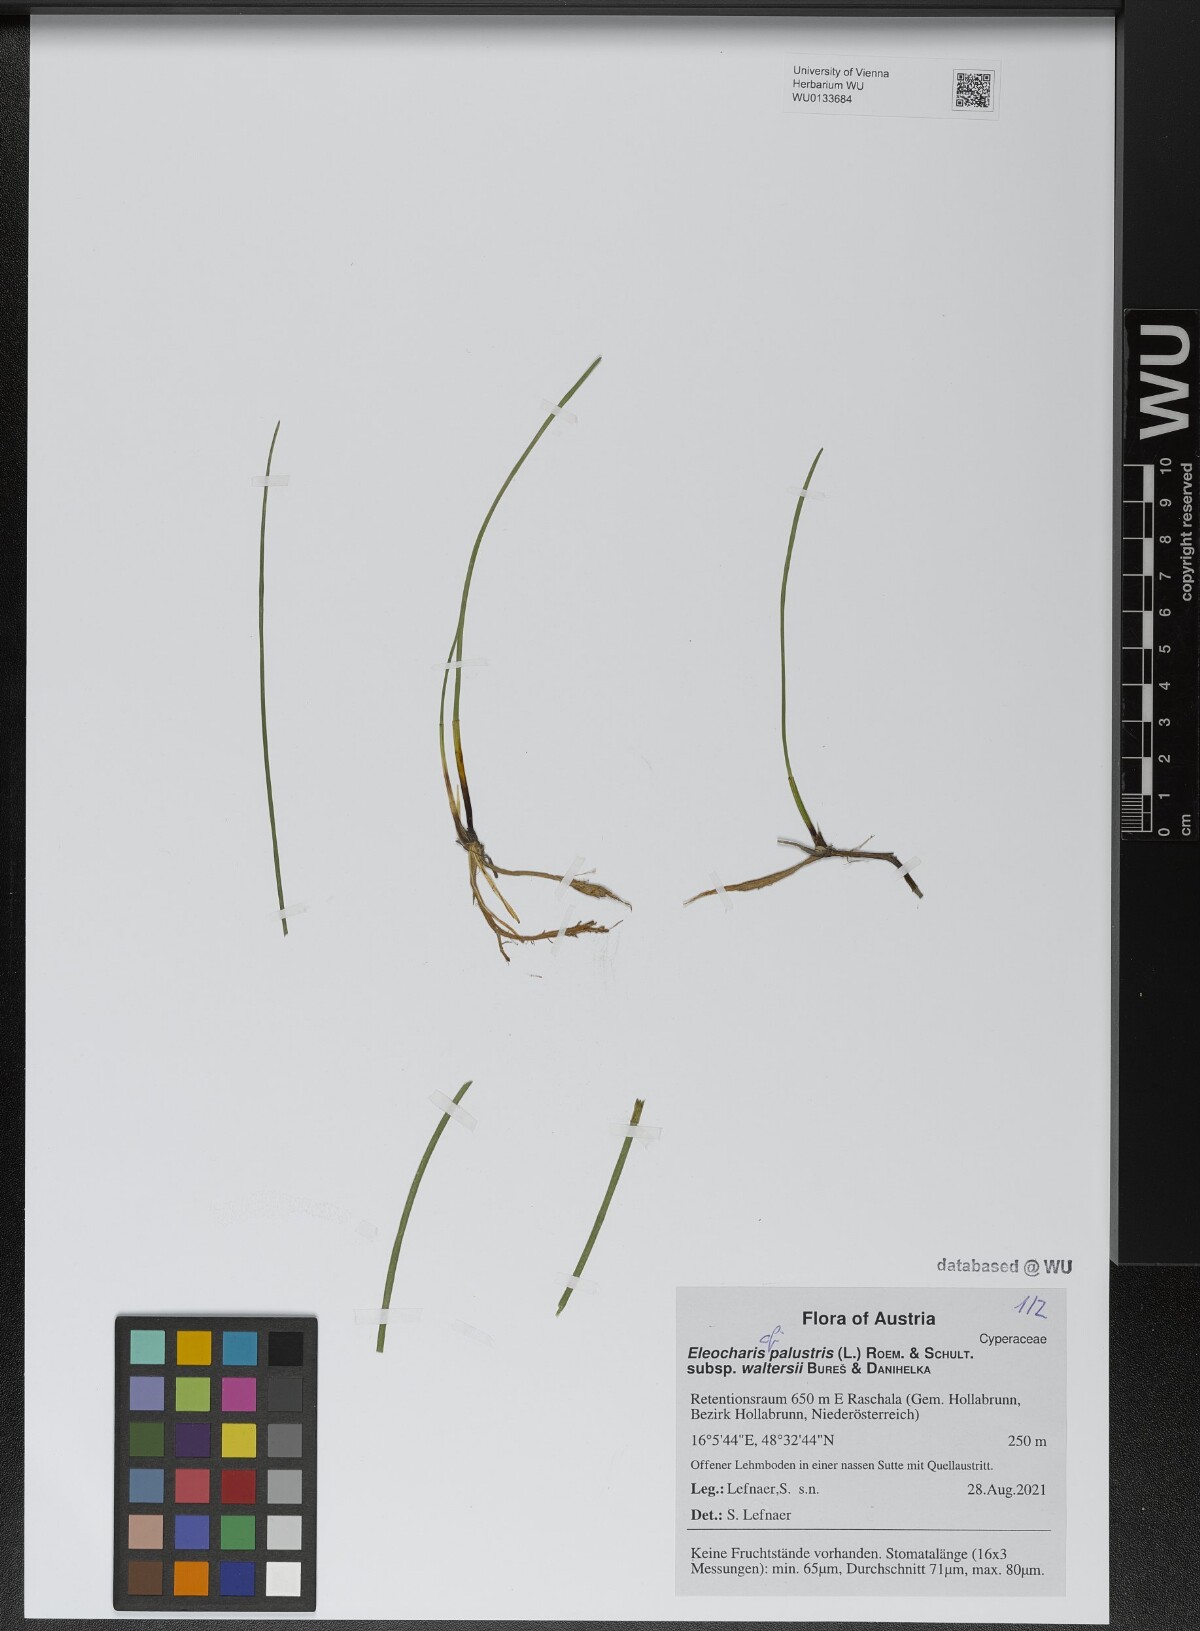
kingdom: Plantae
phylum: Tracheophyta
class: Liliopsida
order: Poales
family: Cyperaceae
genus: Eleocharis
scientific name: Eleocharis palustris
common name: Common spike-rush
